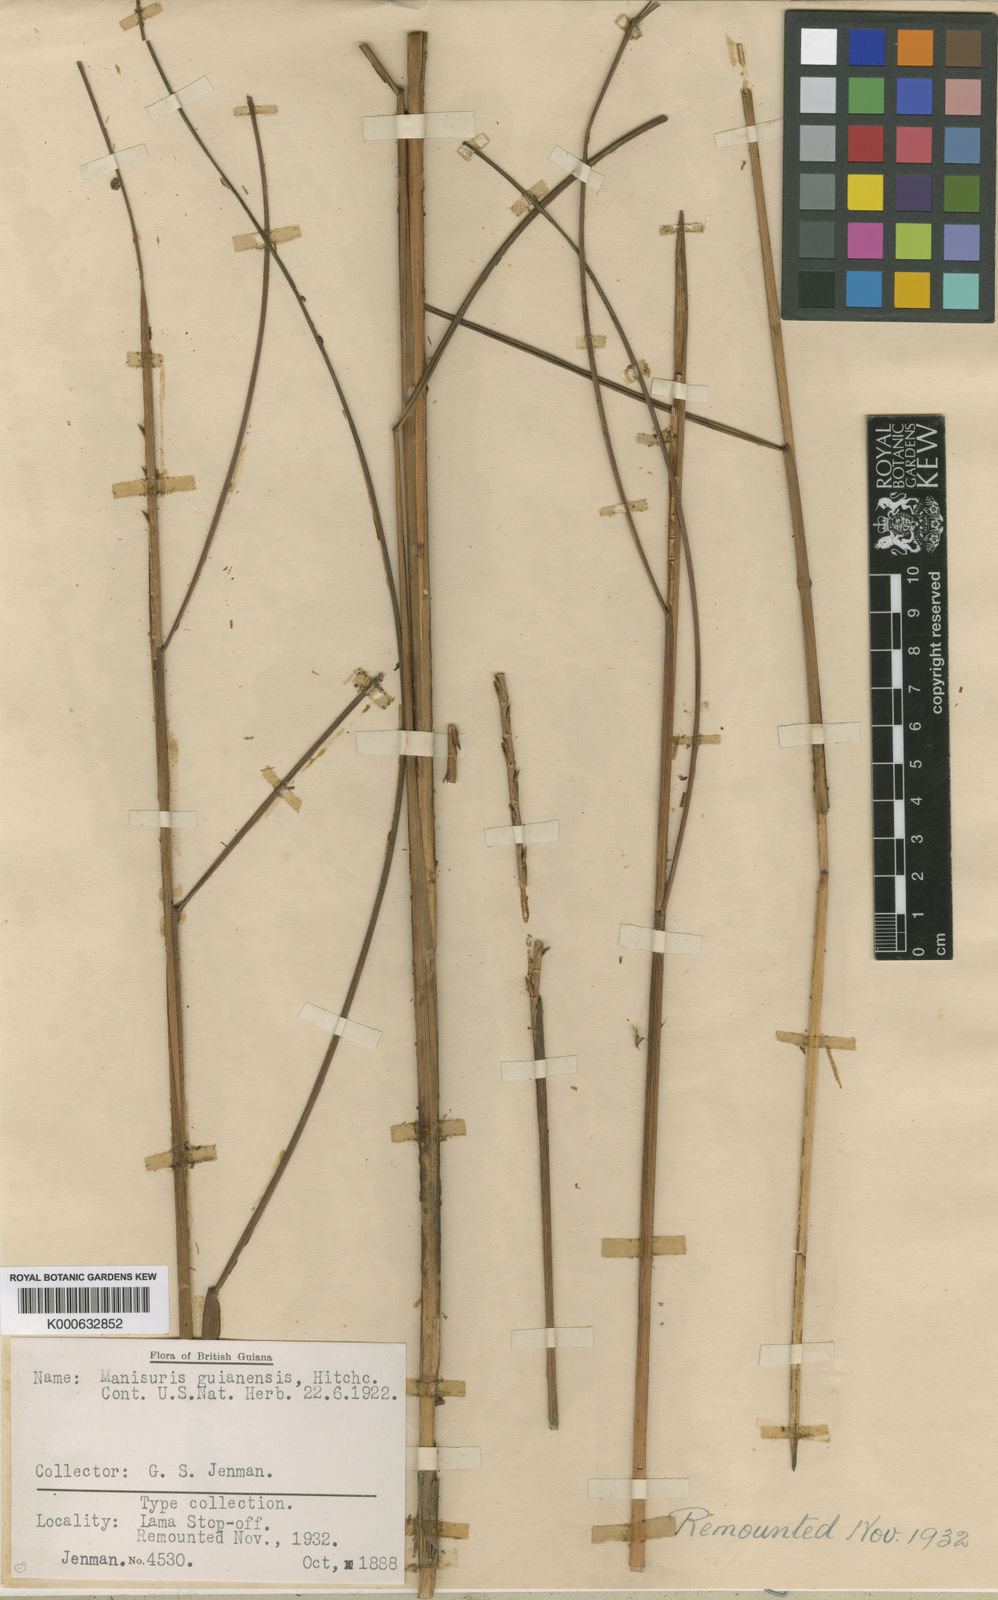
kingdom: Plantae
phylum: Tracheophyta
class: Liliopsida
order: Poales
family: Poaceae
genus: Rottboellia
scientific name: Rottboellia
